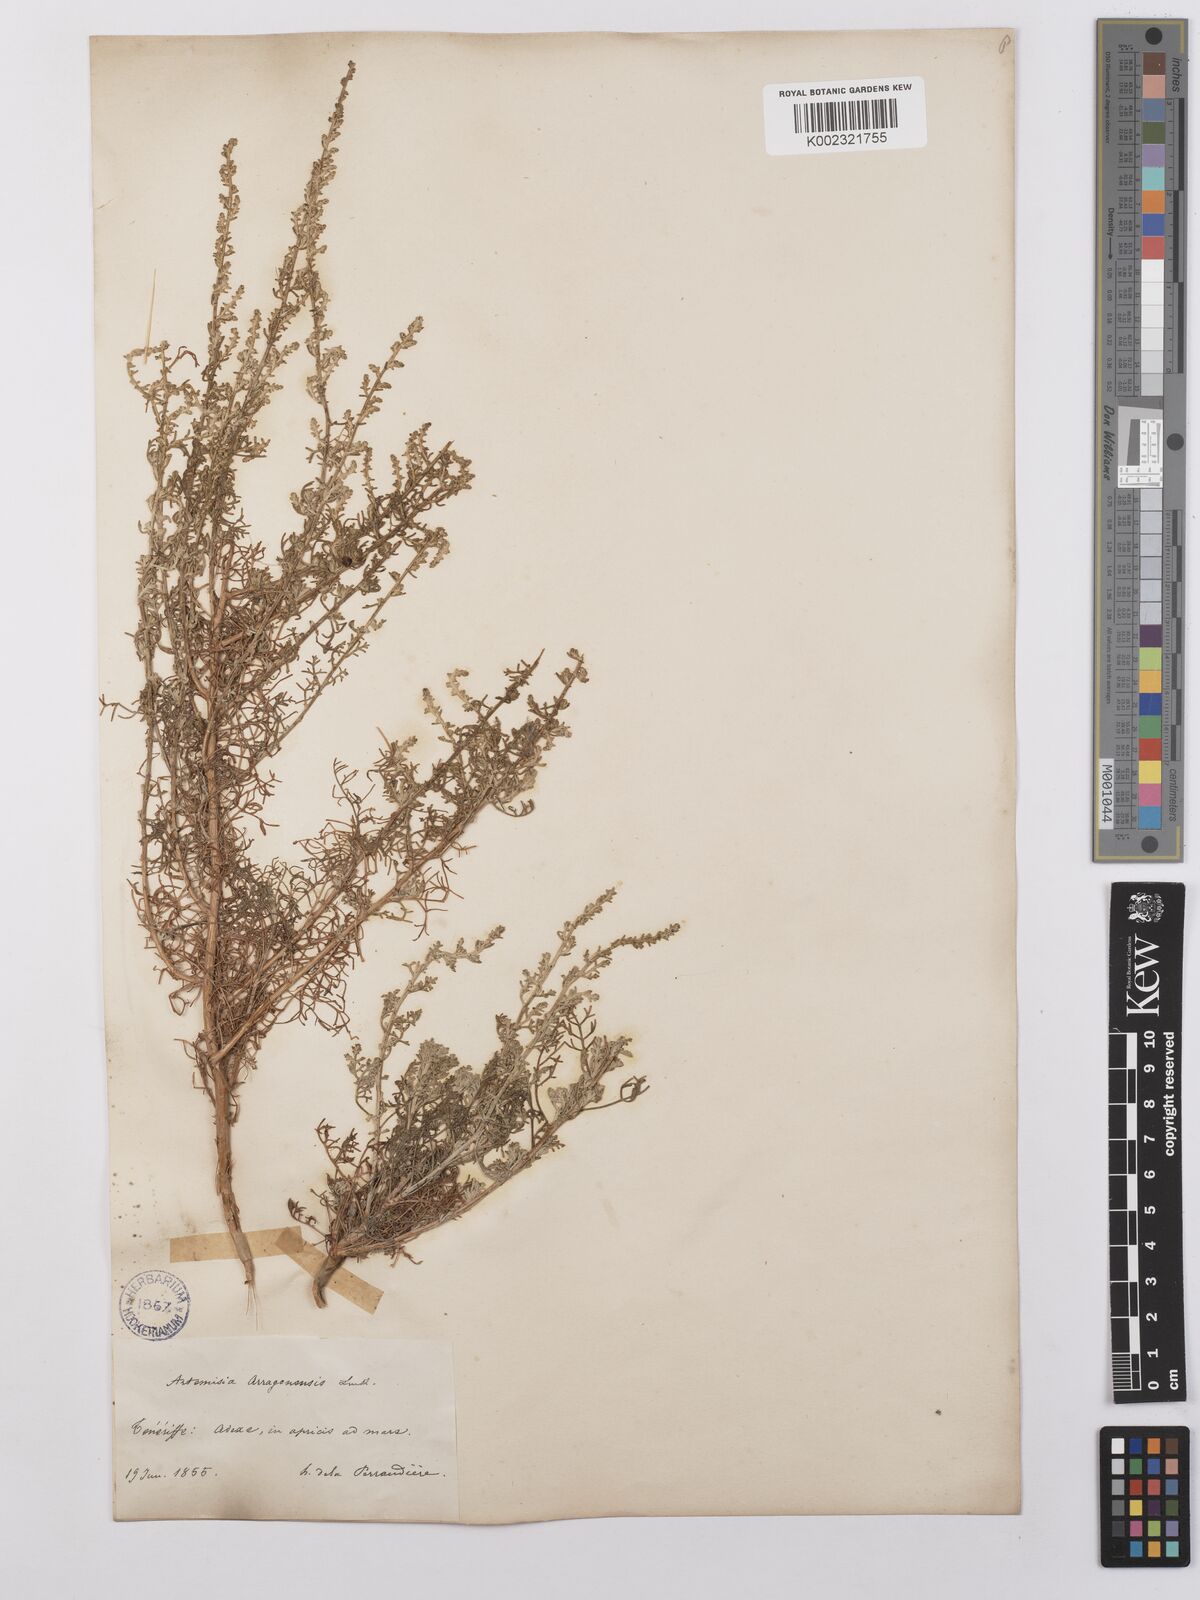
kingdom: Plantae
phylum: Tracheophyta
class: Magnoliopsida
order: Asterales
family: Asteraceae
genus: Artemisia
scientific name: Artemisia herba-alba
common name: White wormwood
